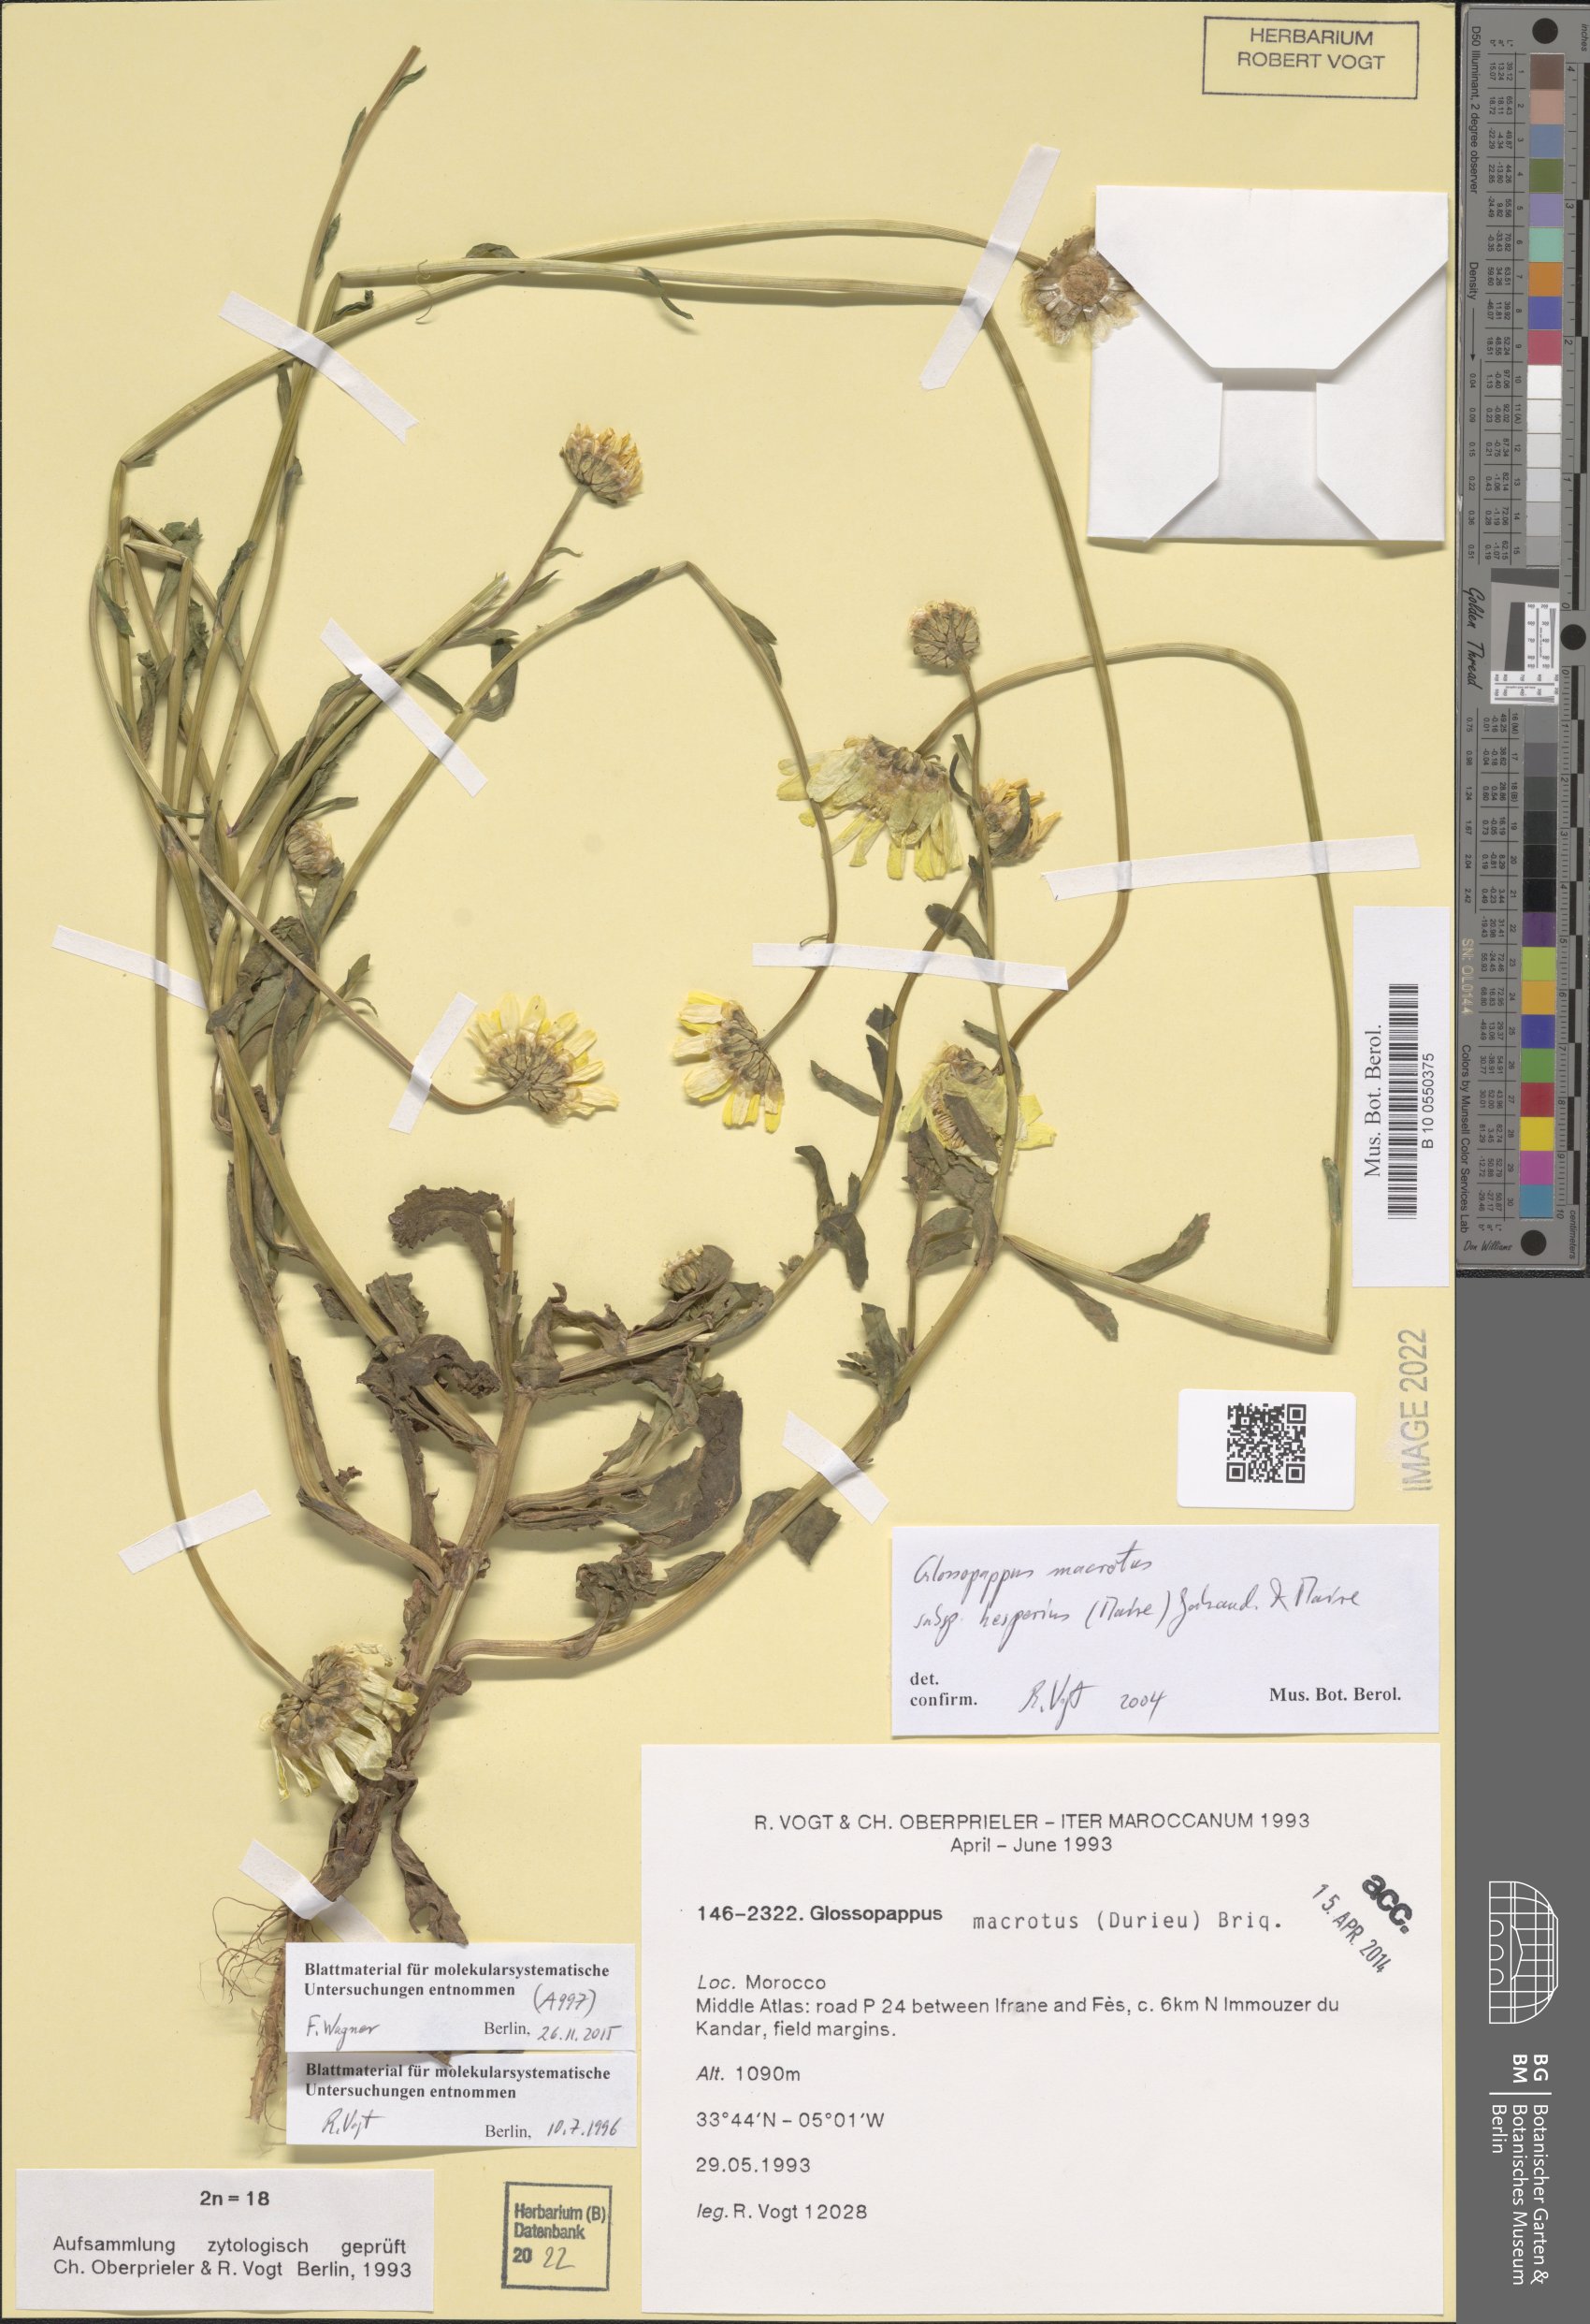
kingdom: Plantae
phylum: Tracheophyta
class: Magnoliopsida
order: Asterales
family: Asteraceae
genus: Glossopappus
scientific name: Glossopappus macrotus
